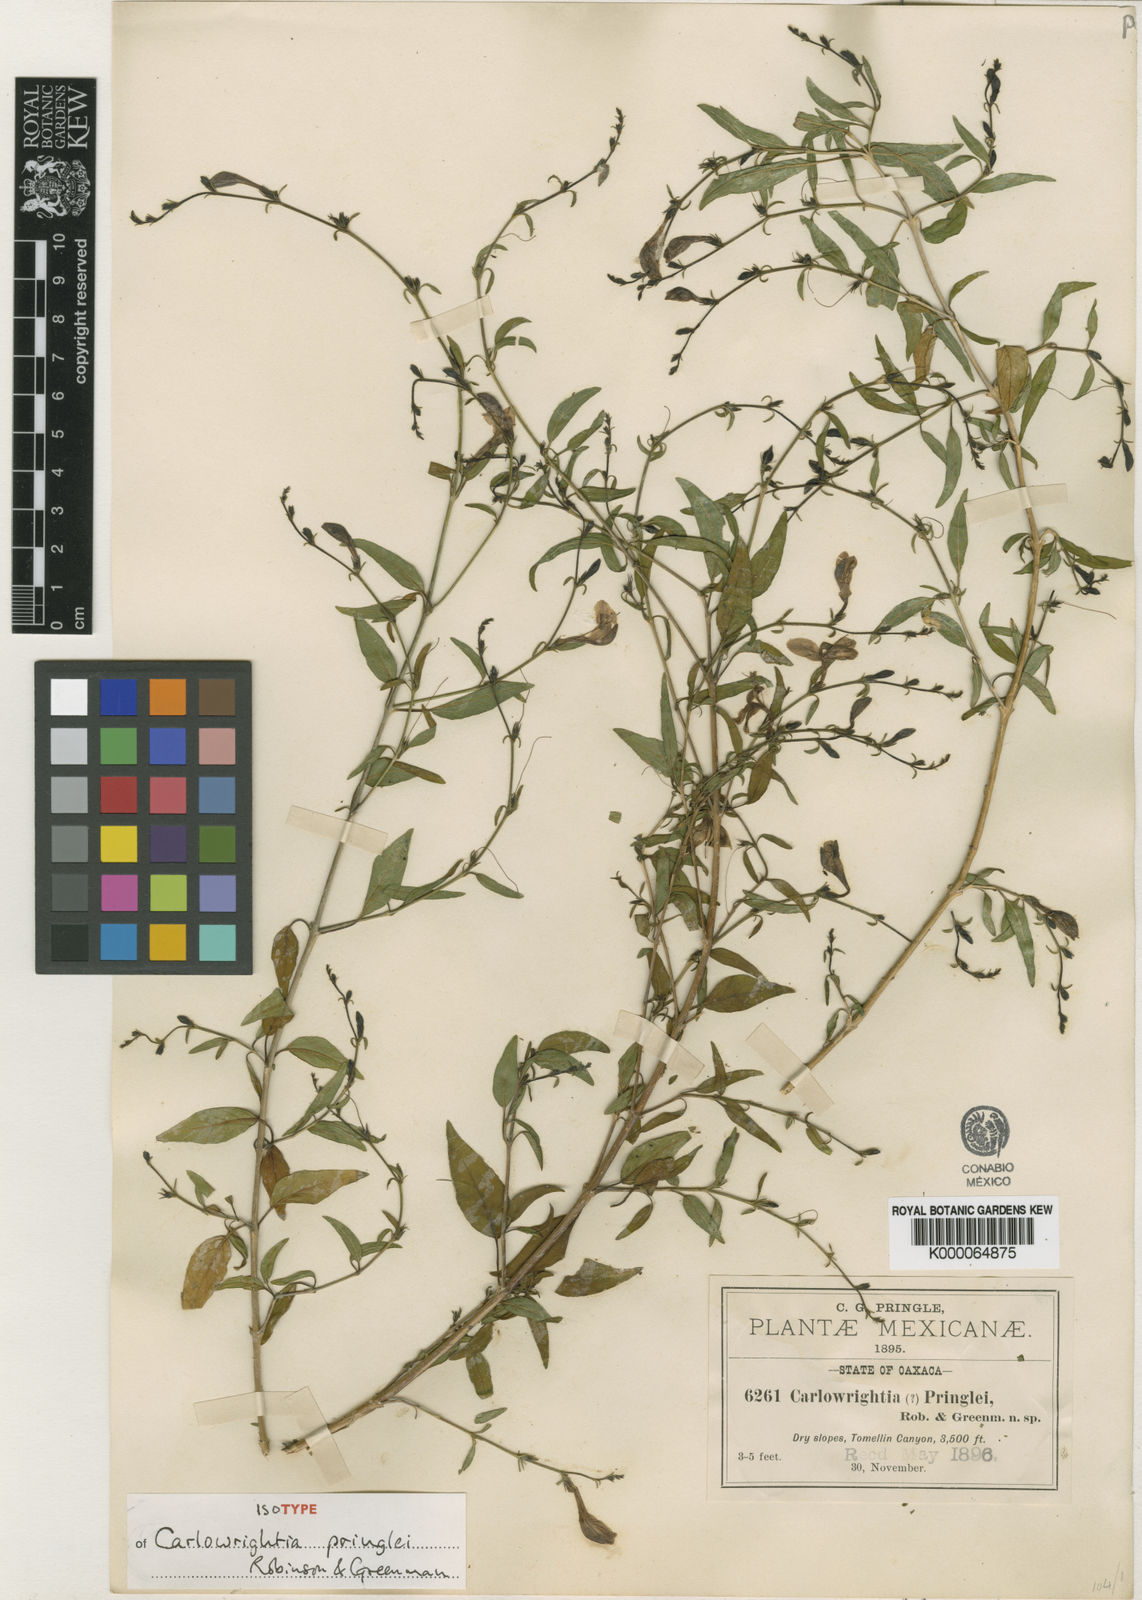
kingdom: Plantae
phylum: Tracheophyta
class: Magnoliopsida
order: Lamiales
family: Acanthaceae
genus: Carlowrightia
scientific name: Carlowrightia pringlei
